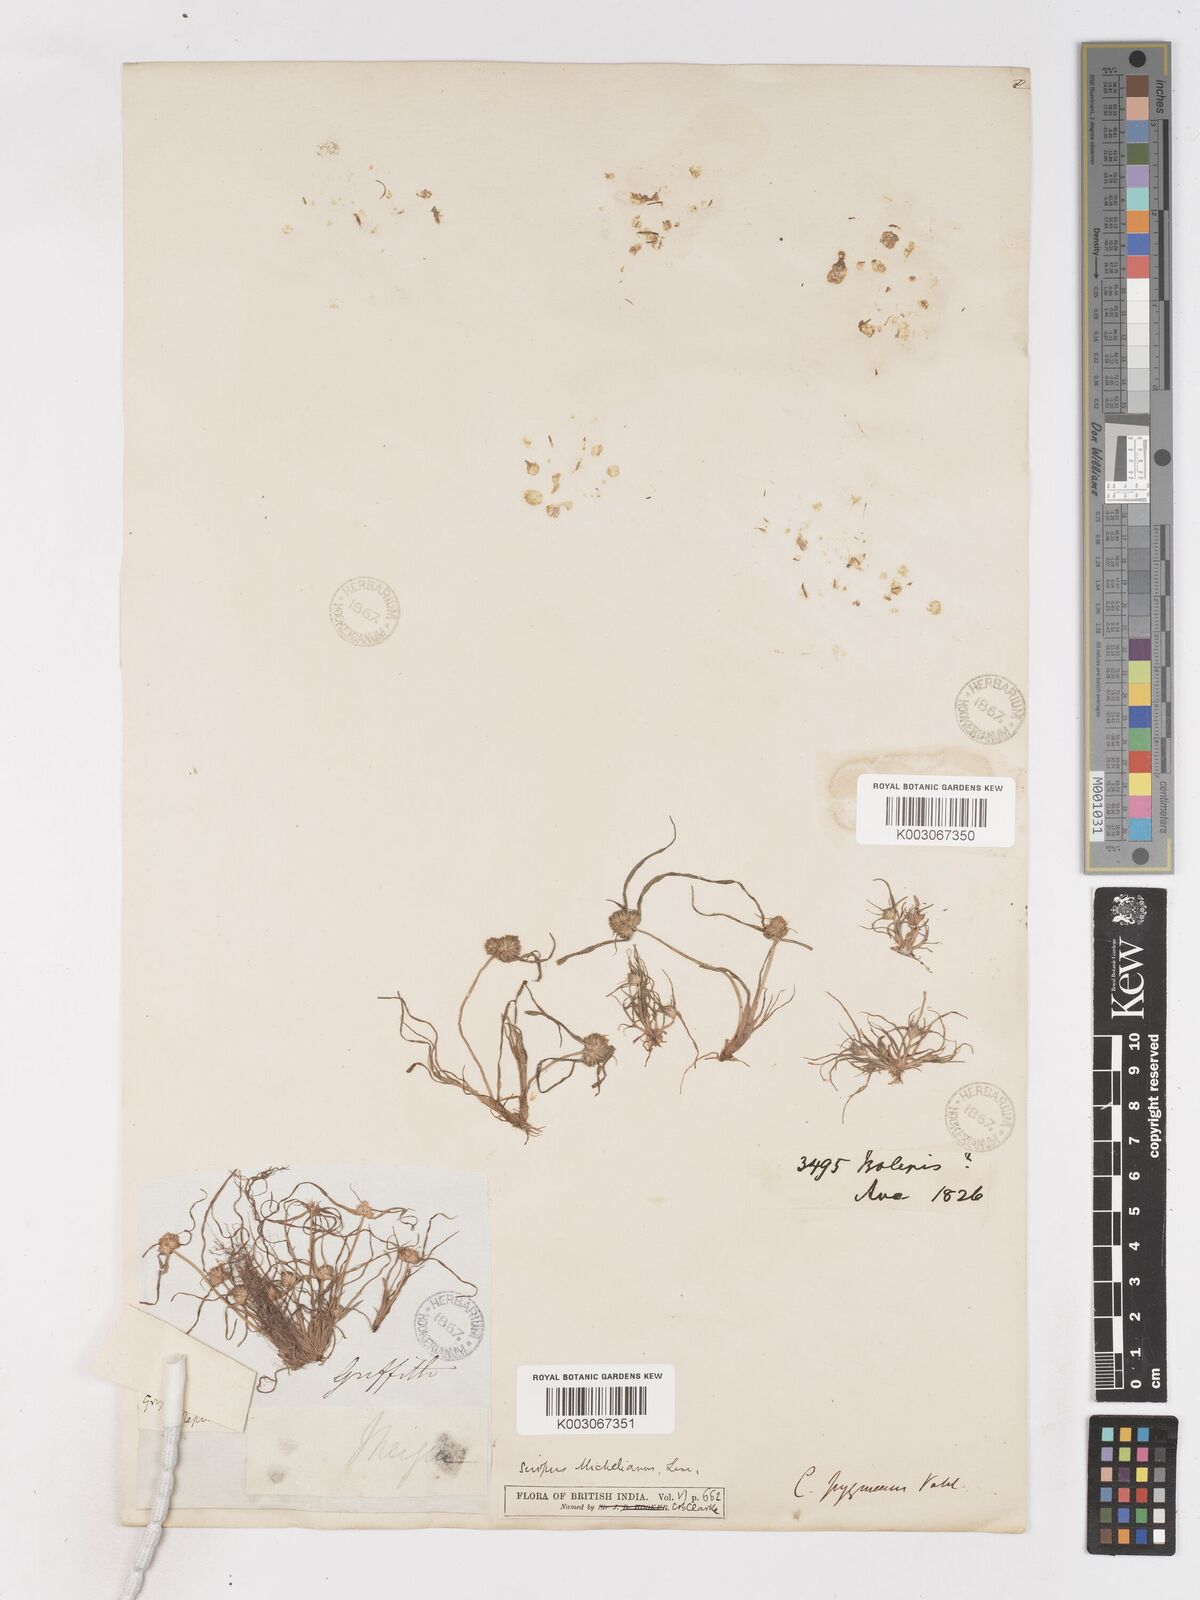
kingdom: Plantae
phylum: Tracheophyta
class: Liliopsida
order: Poales
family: Cyperaceae
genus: Cyperus
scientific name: Cyperus michelianus
